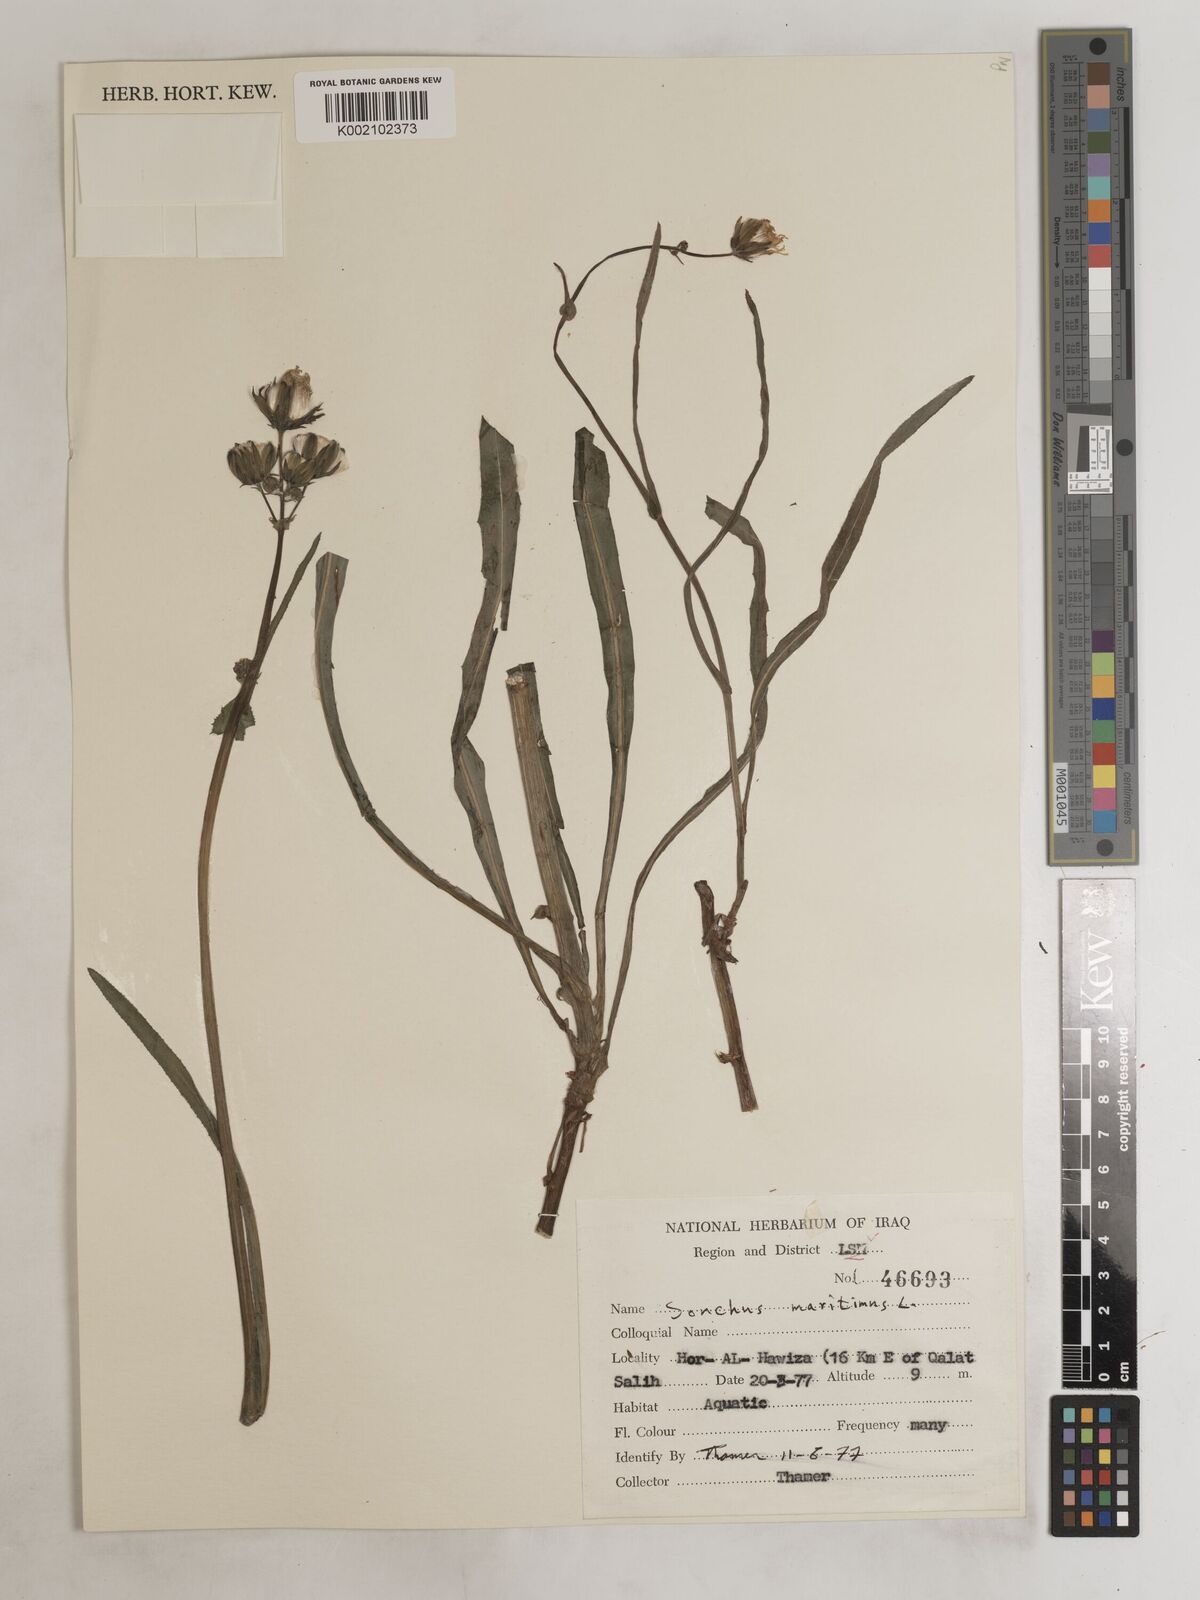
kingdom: Plantae
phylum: Tracheophyta
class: Magnoliopsida
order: Asterales
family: Asteraceae
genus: Sonchus
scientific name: Sonchus maritimus
